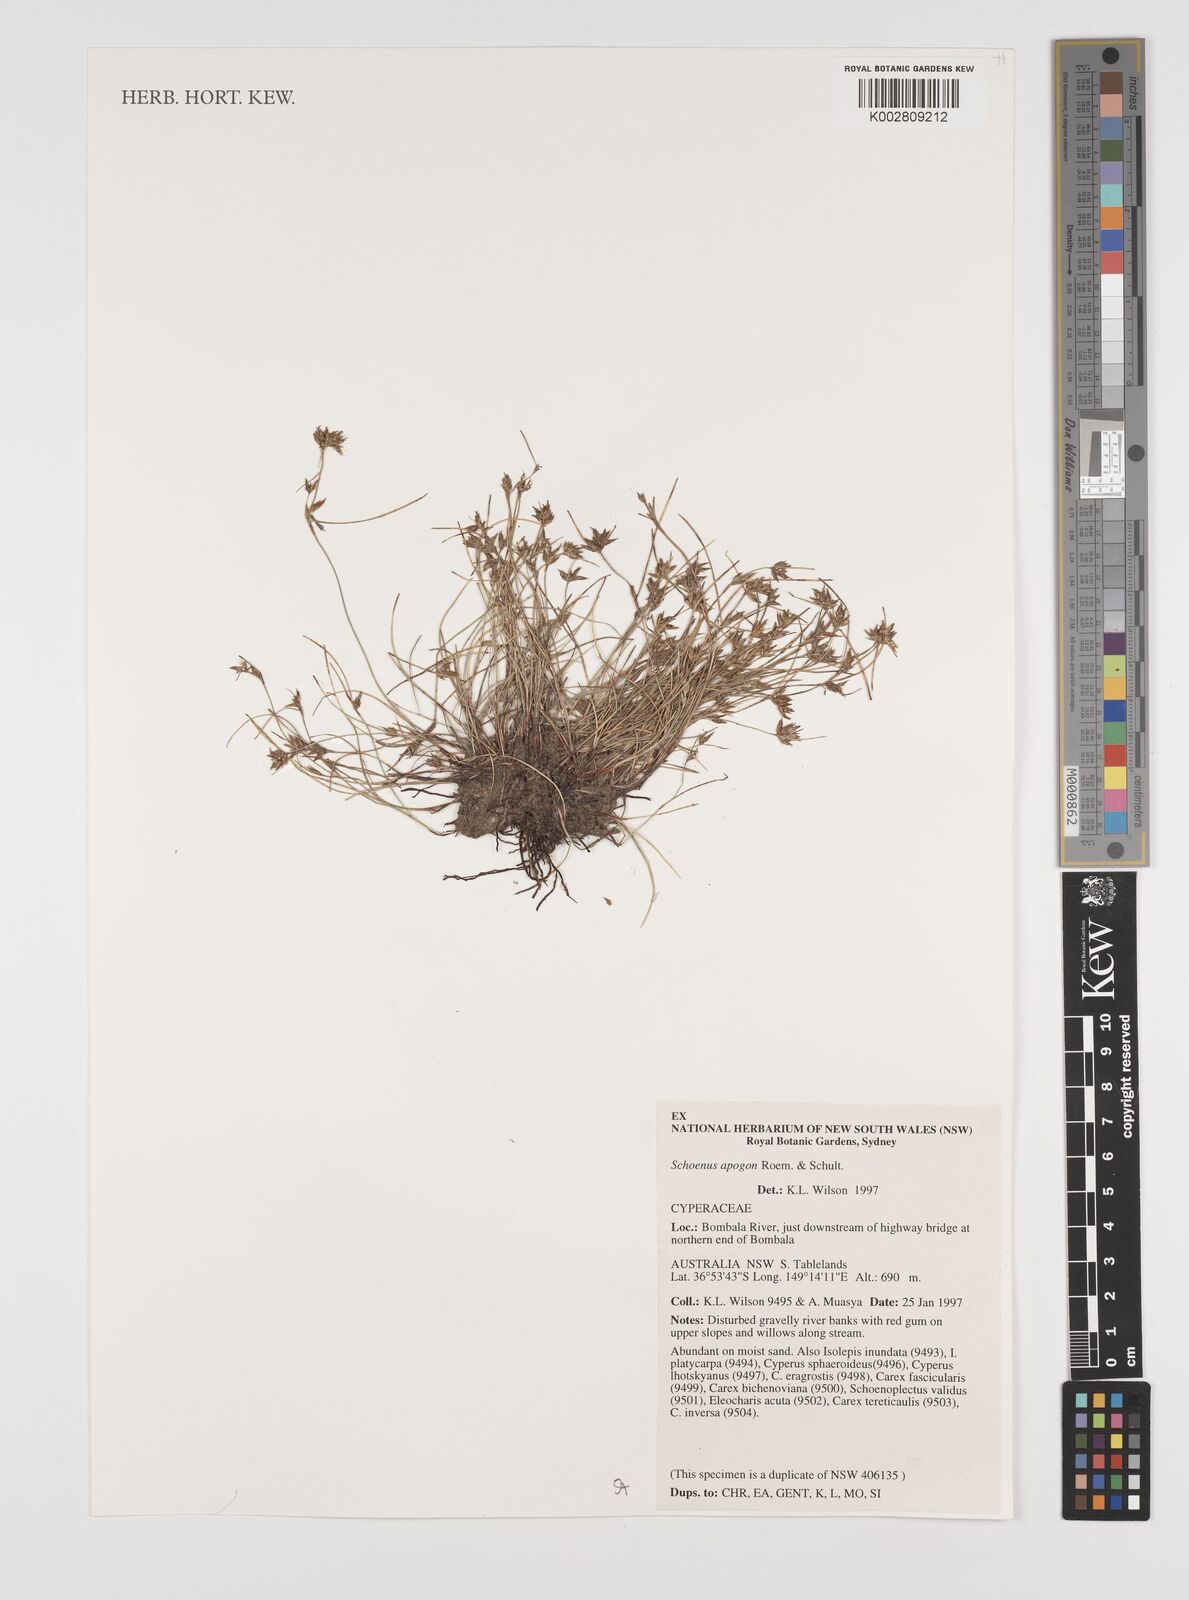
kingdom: Plantae
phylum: Tracheophyta
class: Liliopsida
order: Poales
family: Cyperaceae
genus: Schoenus
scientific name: Schoenus apogon
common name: Smooth bogrush
